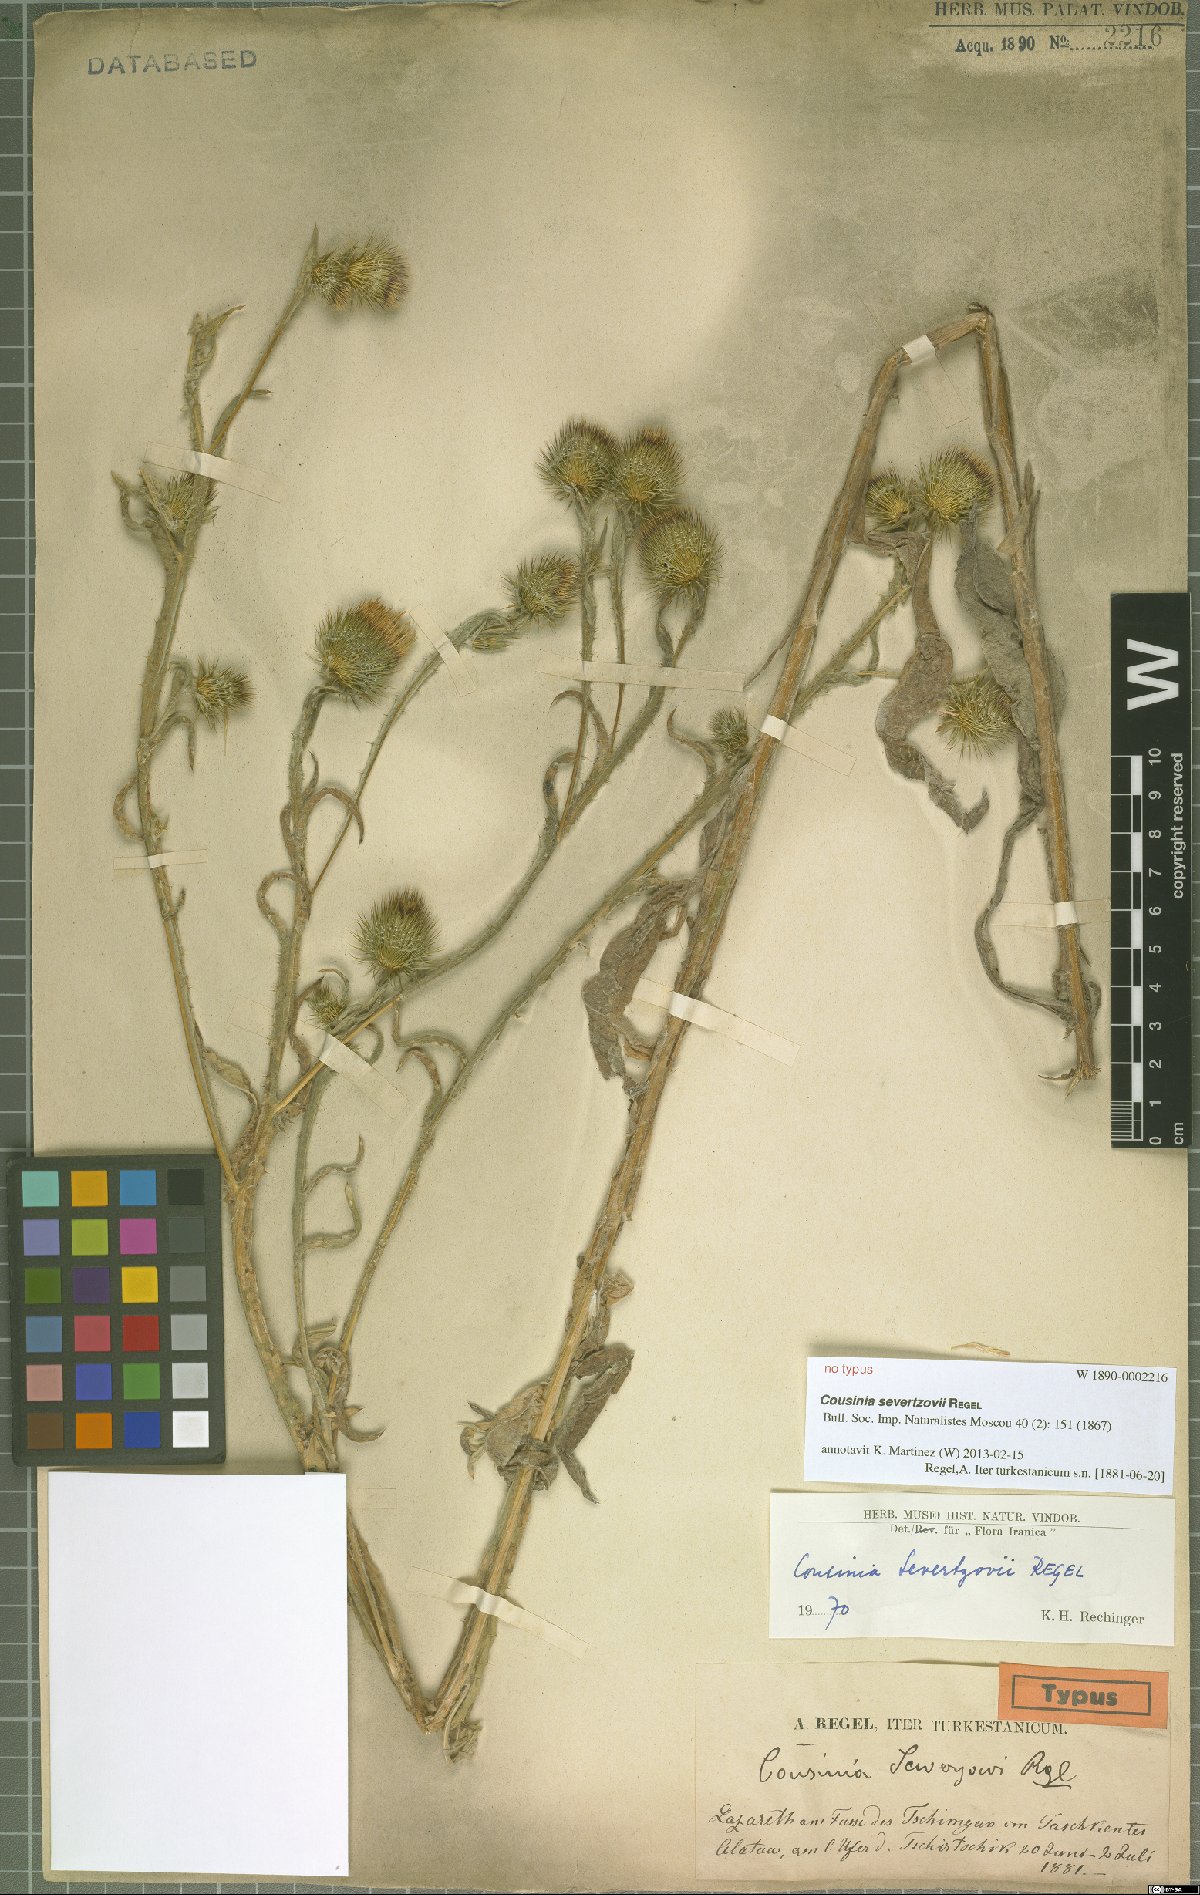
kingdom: Plantae
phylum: Tracheophyta
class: Magnoliopsida
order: Asterales
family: Asteraceae
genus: Cousinia
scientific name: Cousinia severtzovii
